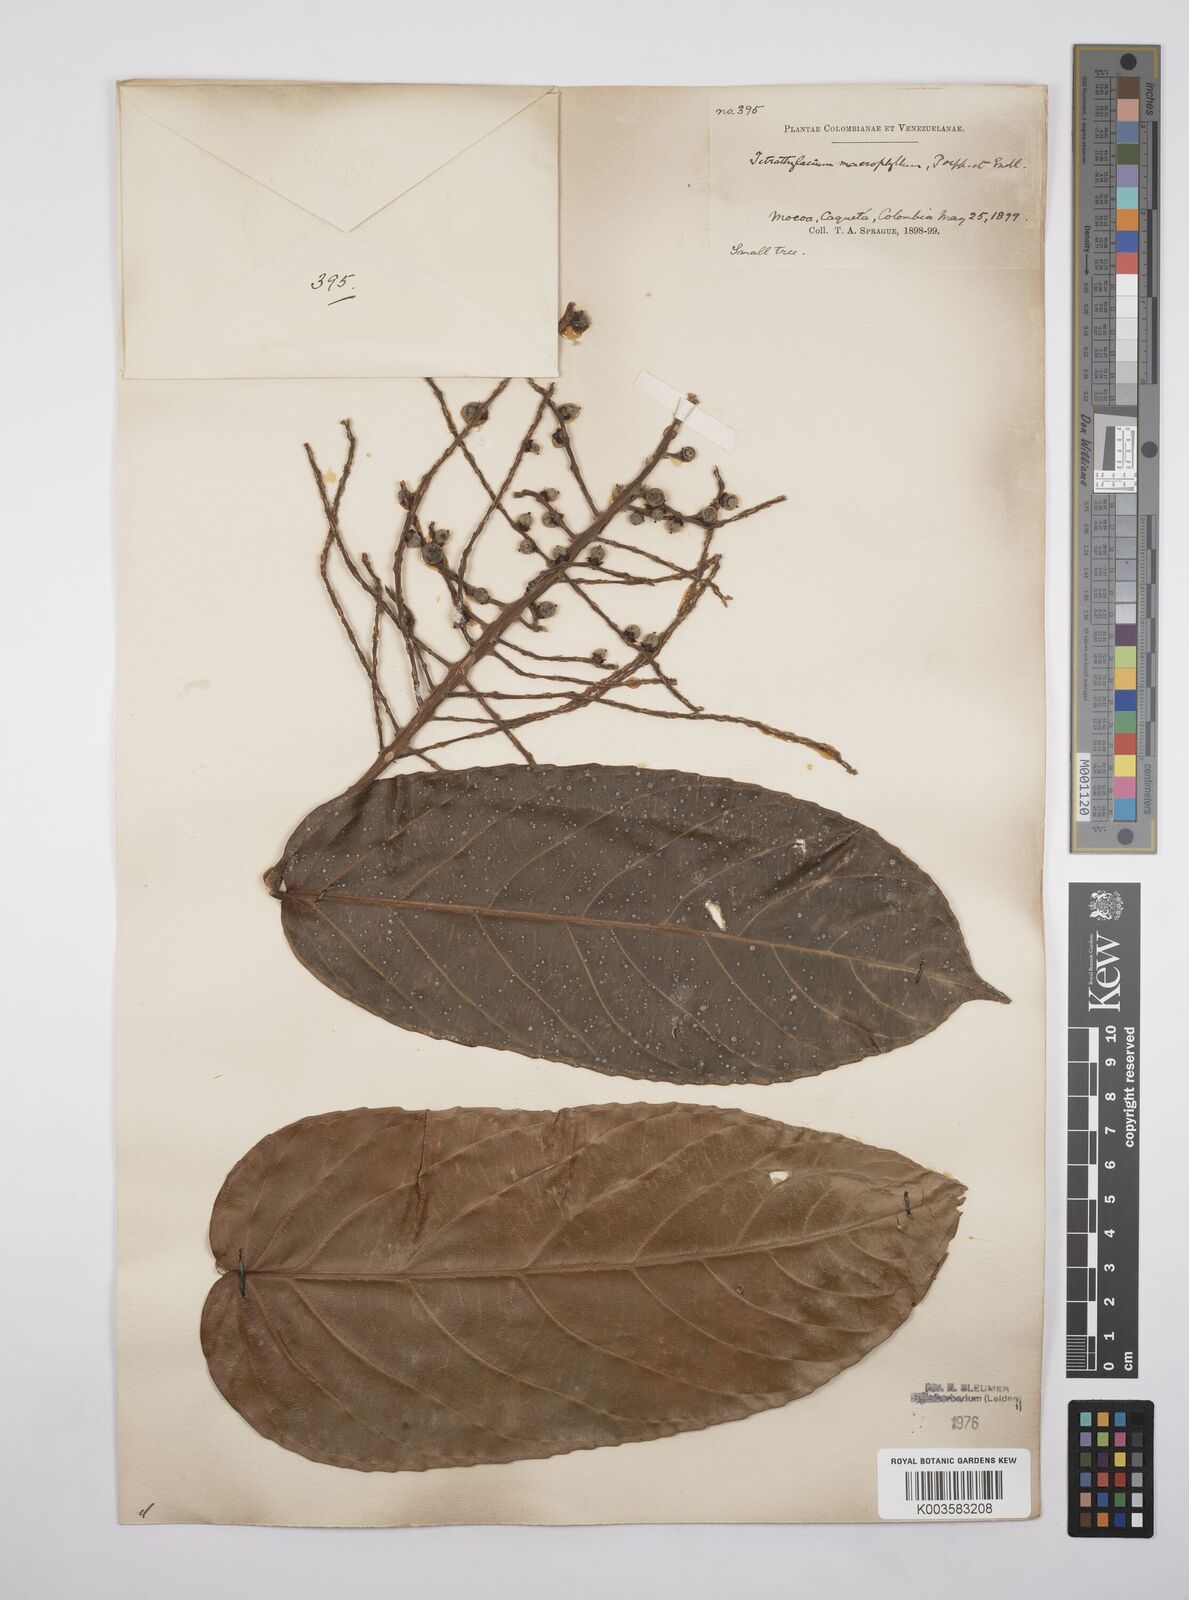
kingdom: Plantae
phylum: Tracheophyta
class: Magnoliopsida
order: Malpighiales
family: Salicaceae
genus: Tetrathylacium
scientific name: Tetrathylacium macrophyllum
